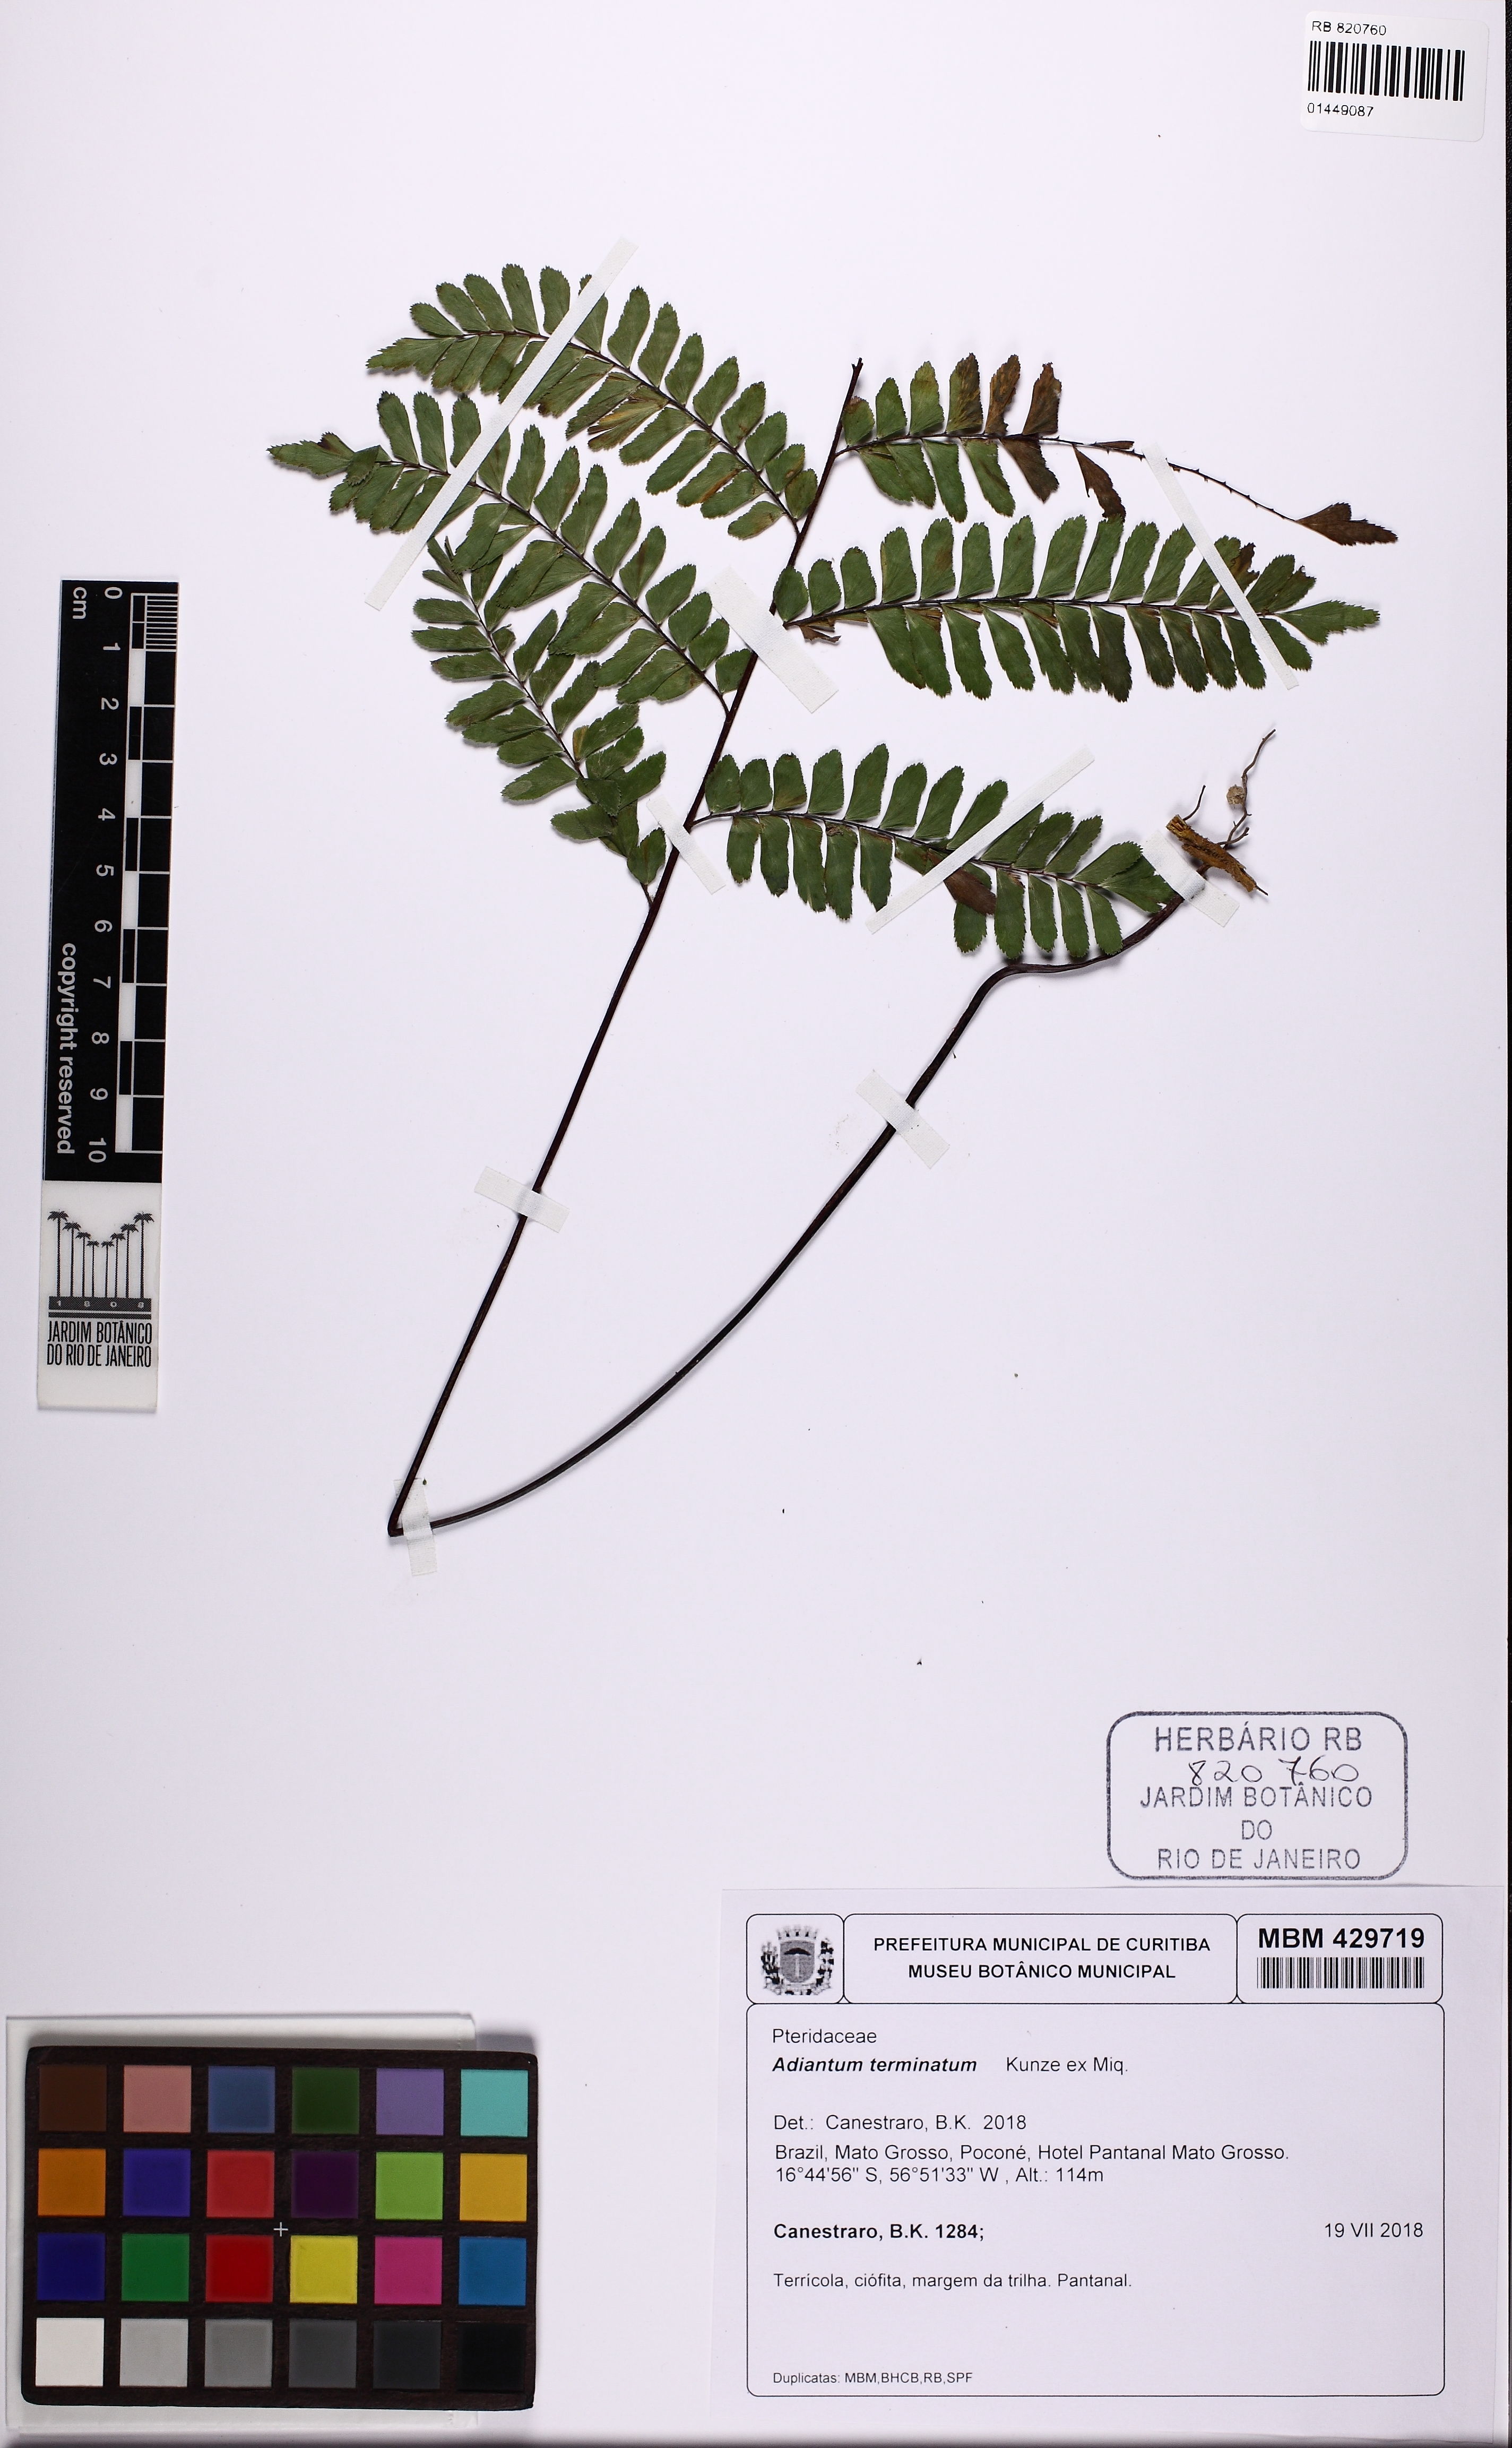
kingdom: Plantae
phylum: Tracheophyta
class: Polypodiopsida
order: Polypodiales
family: Pteridaceae
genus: Adiantum
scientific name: Adiantum terminatum
